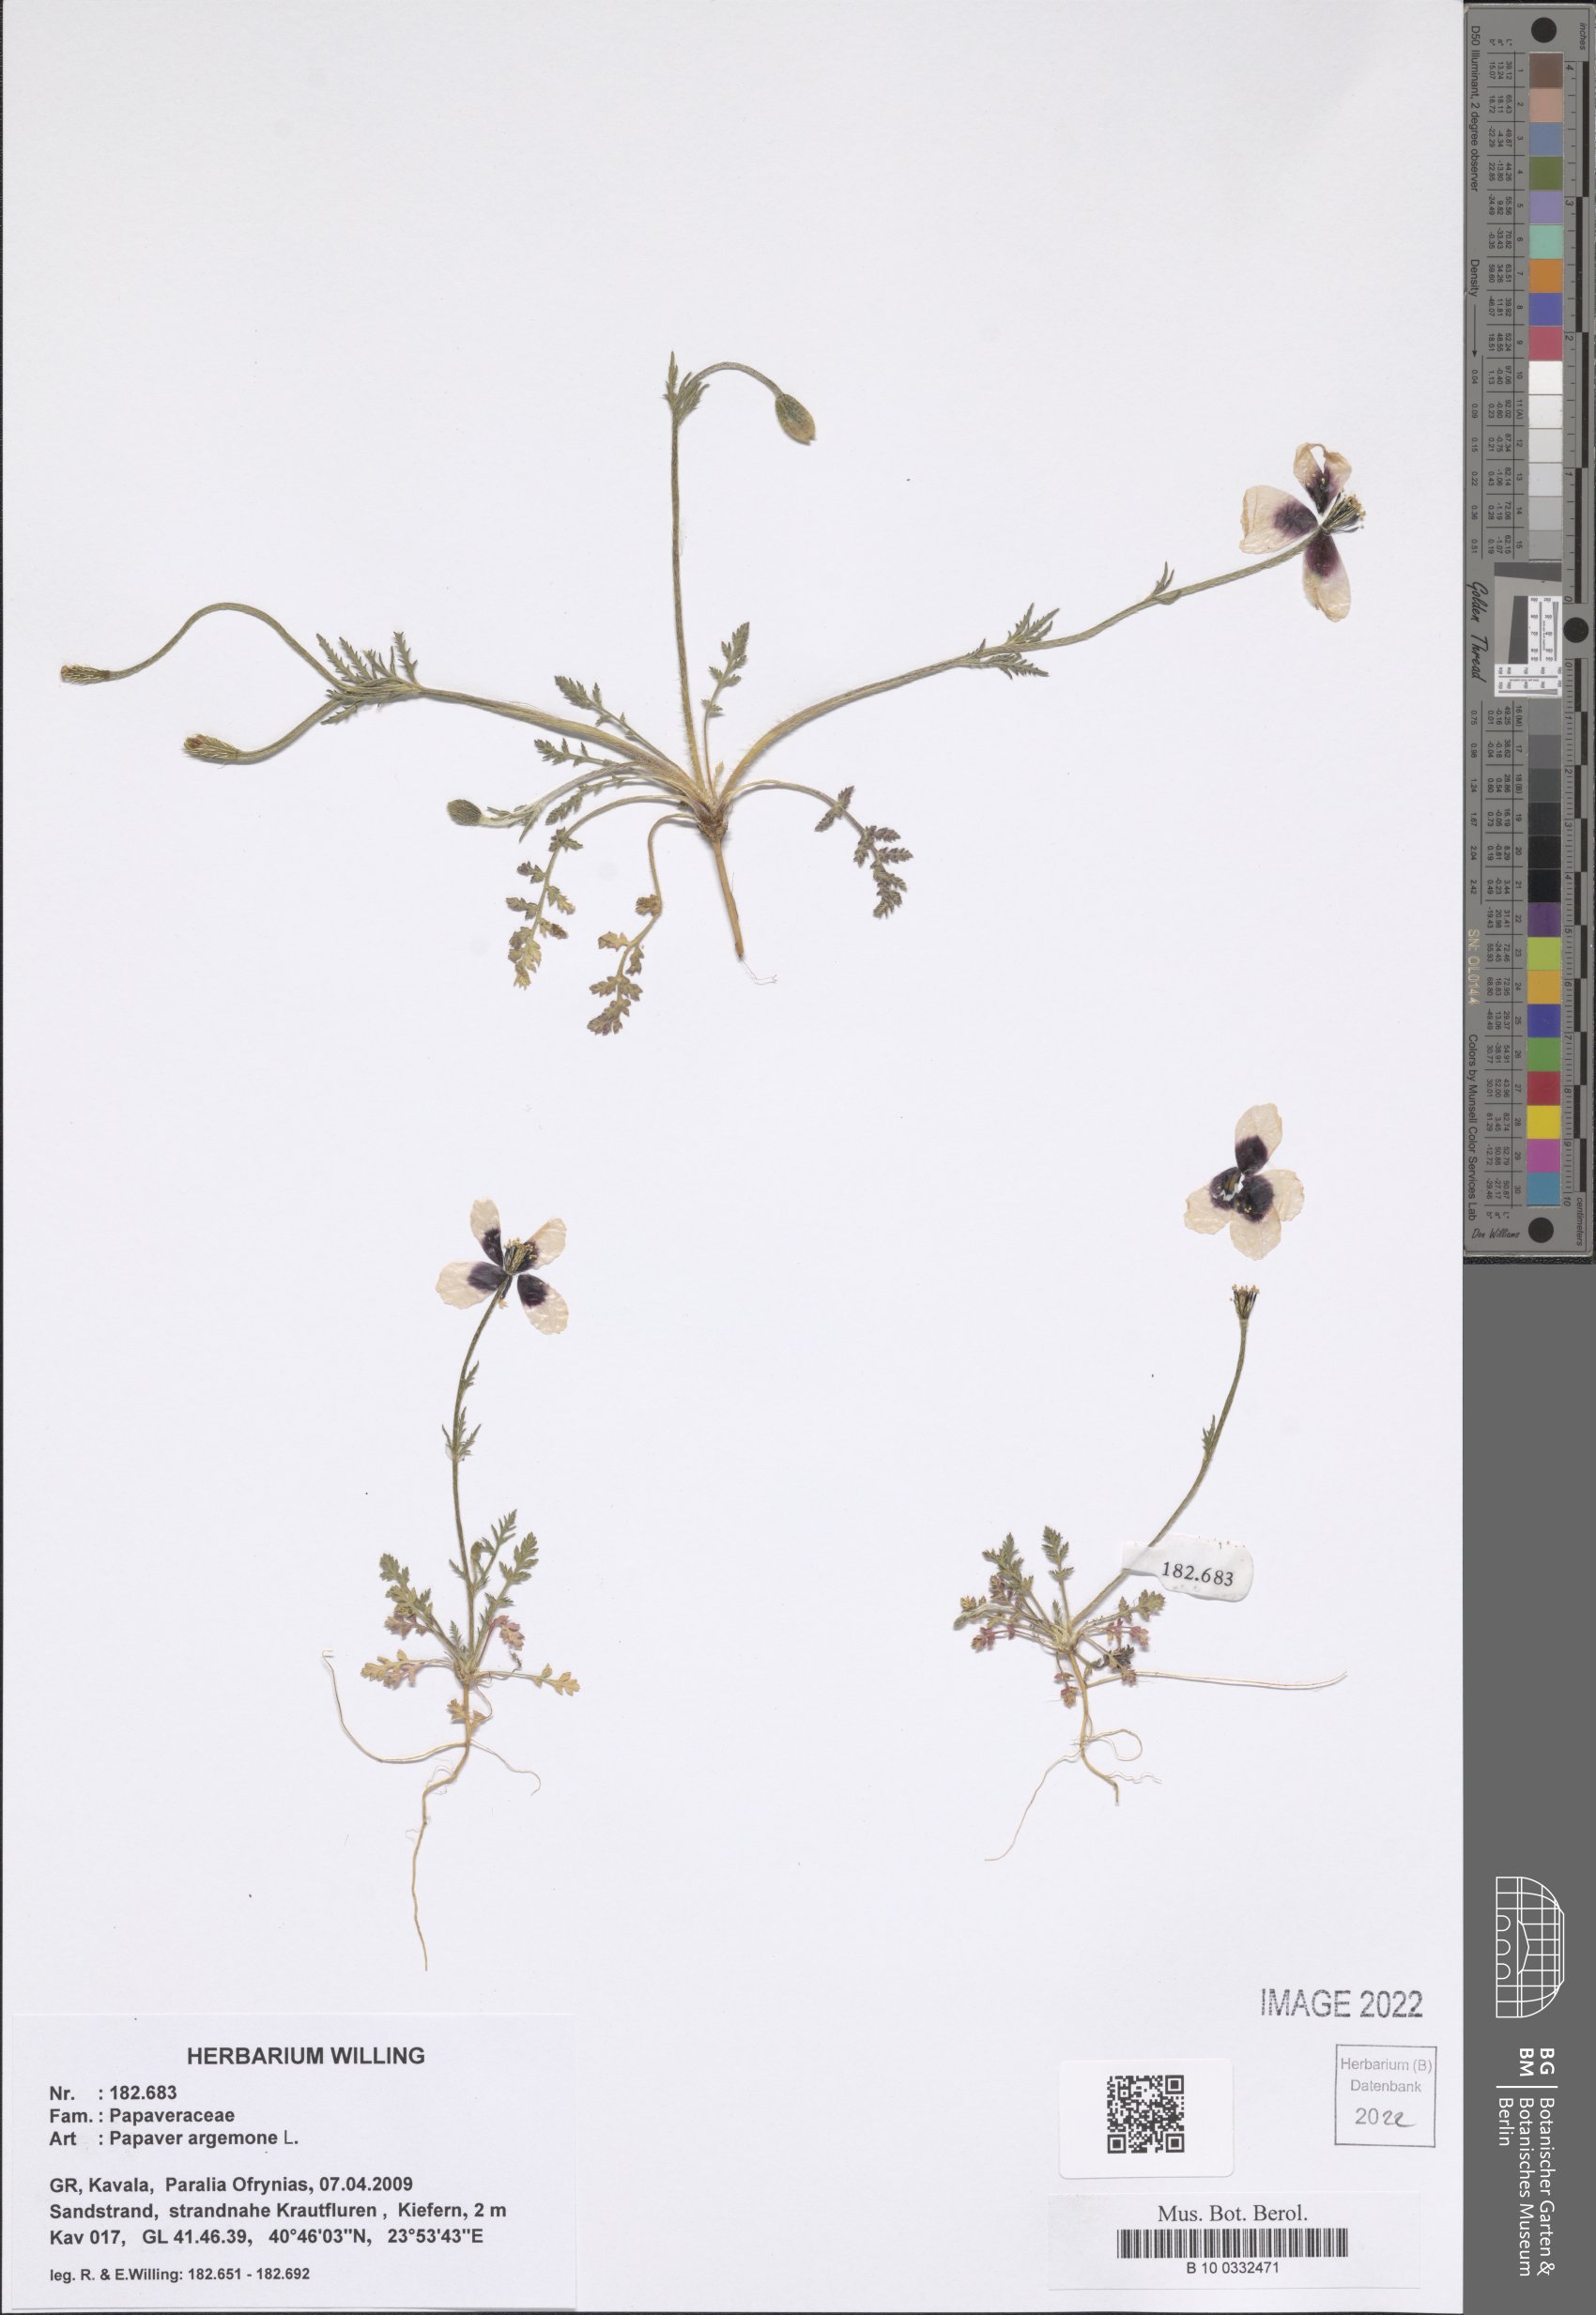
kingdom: Plantae
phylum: Tracheophyta
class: Magnoliopsida
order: Ranunculales
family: Papaveraceae
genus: Roemeria
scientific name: Roemeria argemone
